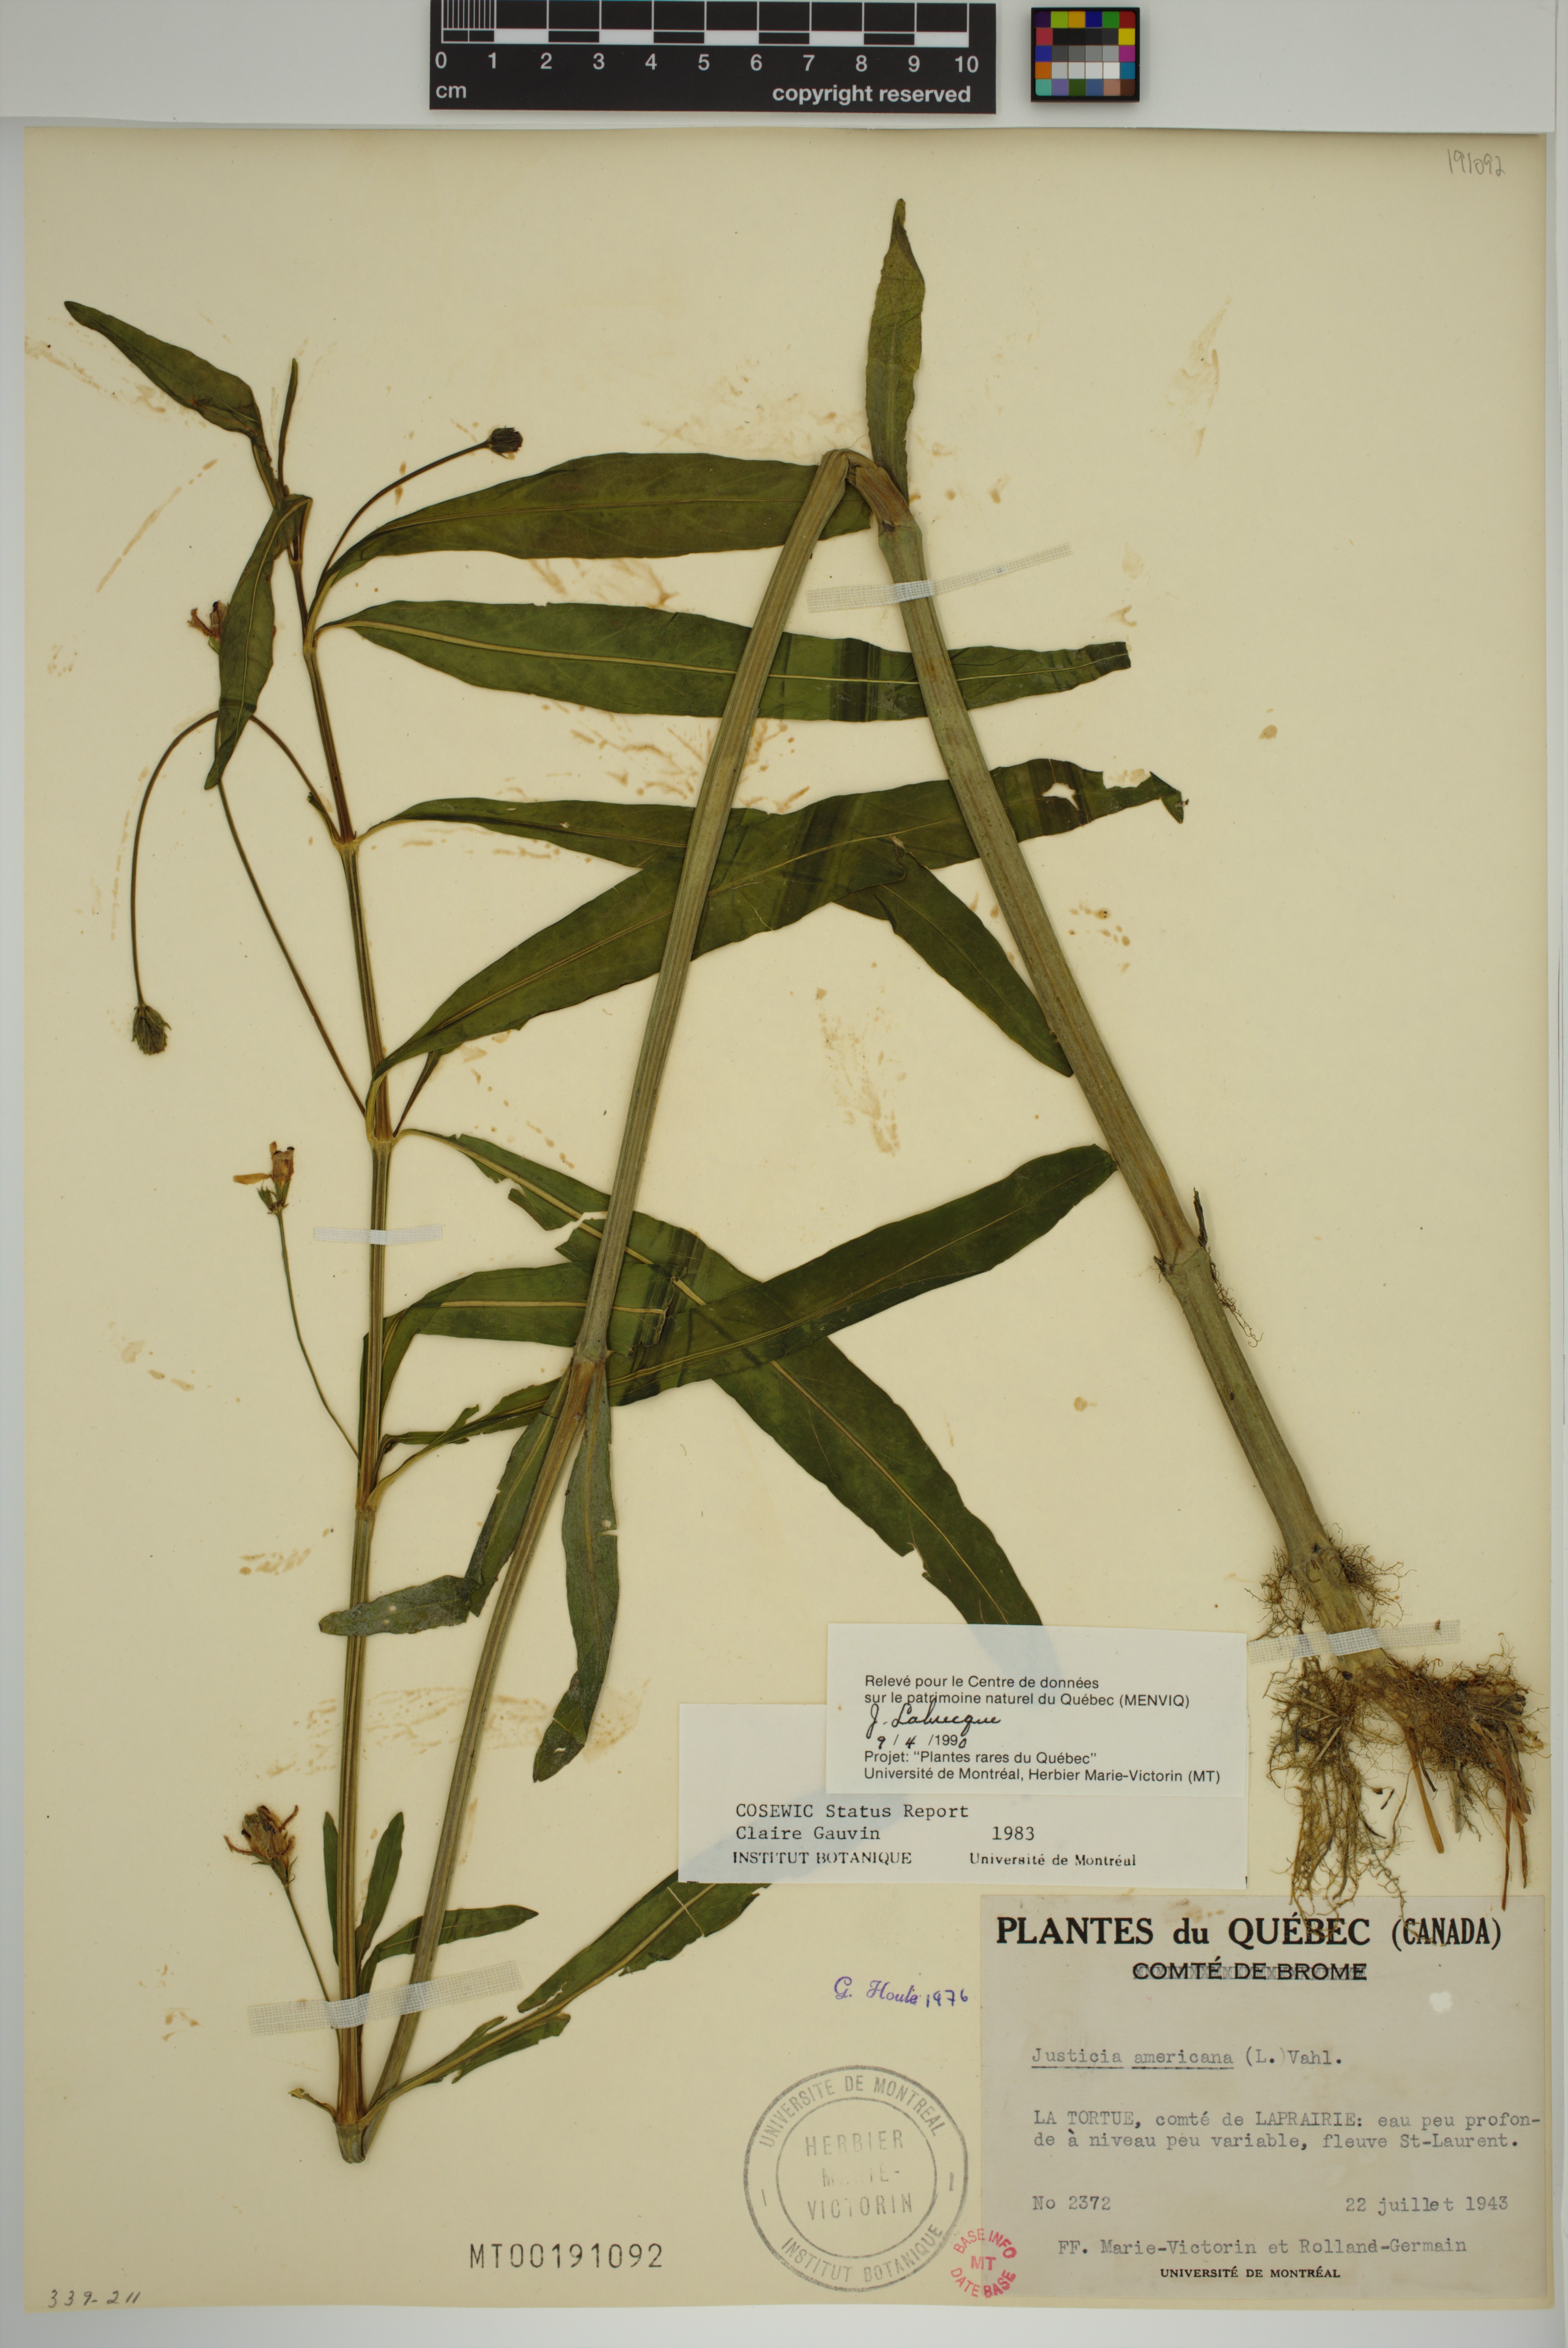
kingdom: Plantae
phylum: Tracheophyta
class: Magnoliopsida
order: Lamiales
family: Acanthaceae
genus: Dianthera
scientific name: Dianthera americana
